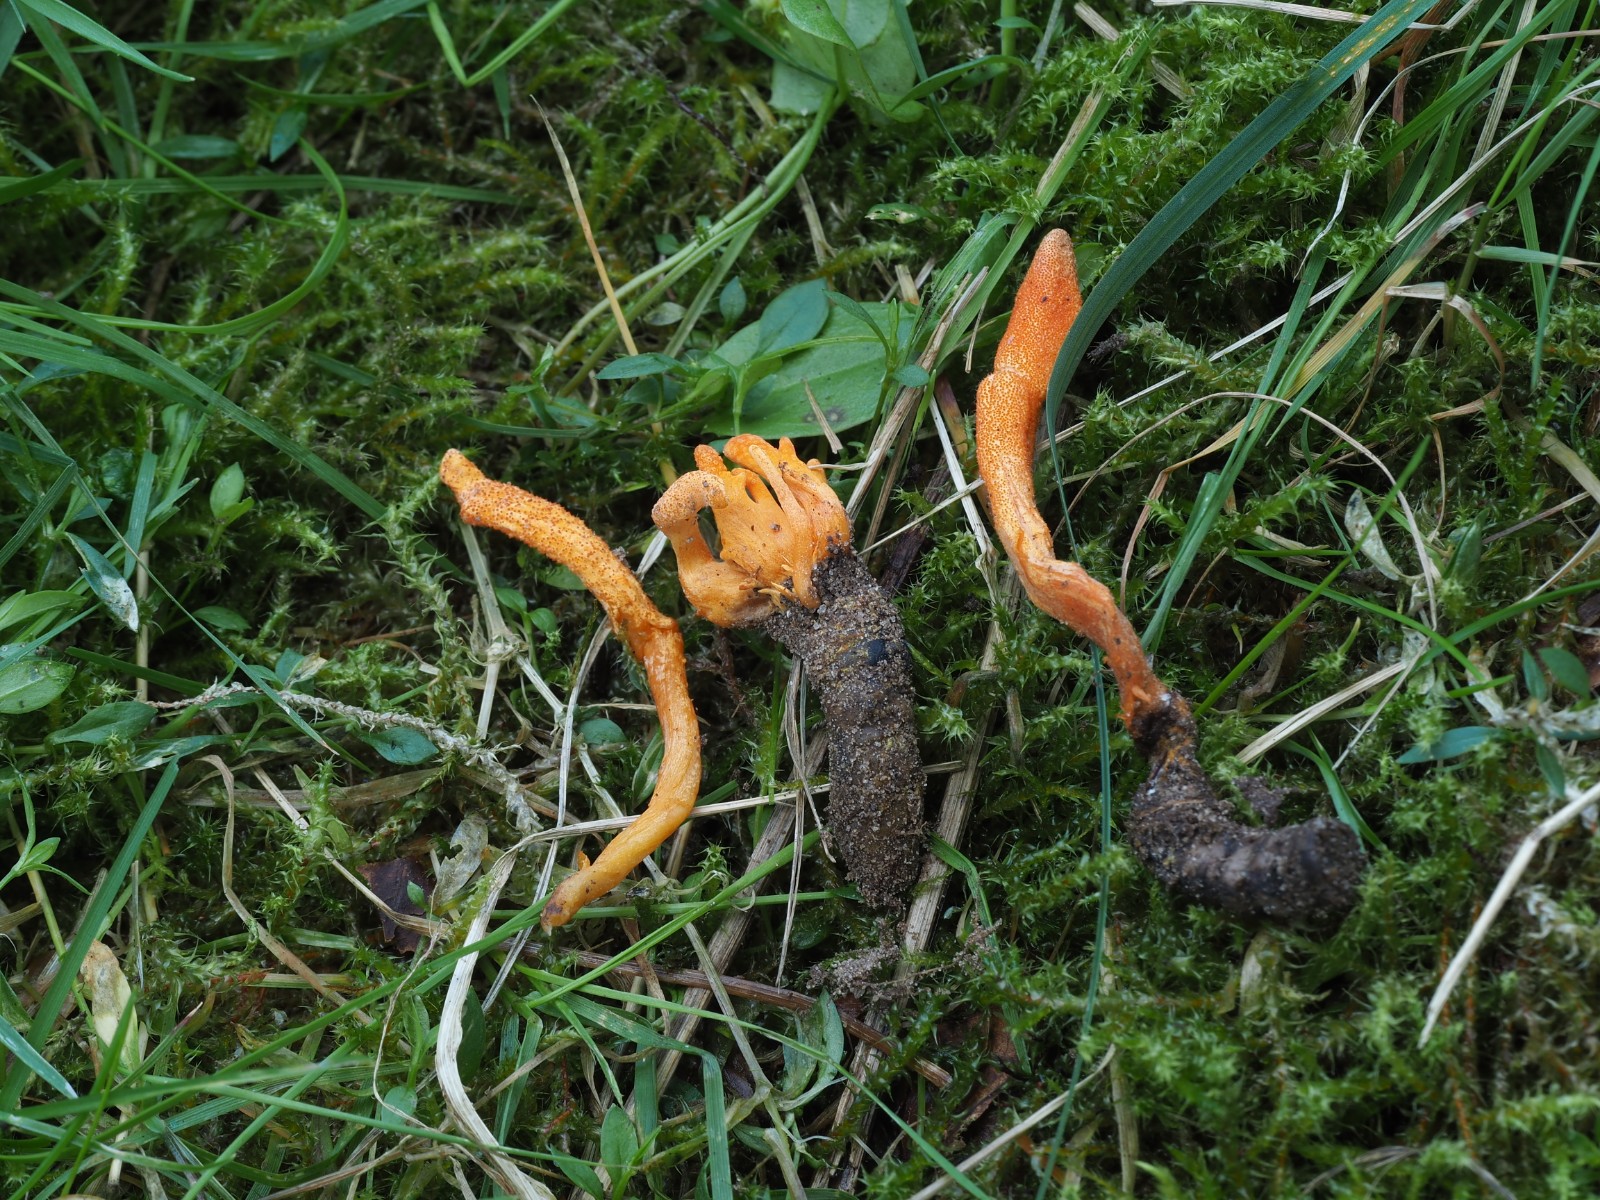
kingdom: Fungi
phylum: Ascomycota
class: Sordariomycetes
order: Hypocreales
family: Cordycipitaceae
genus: Cordyceps
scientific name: Cordyceps militaris
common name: puppe-snyltekølle
